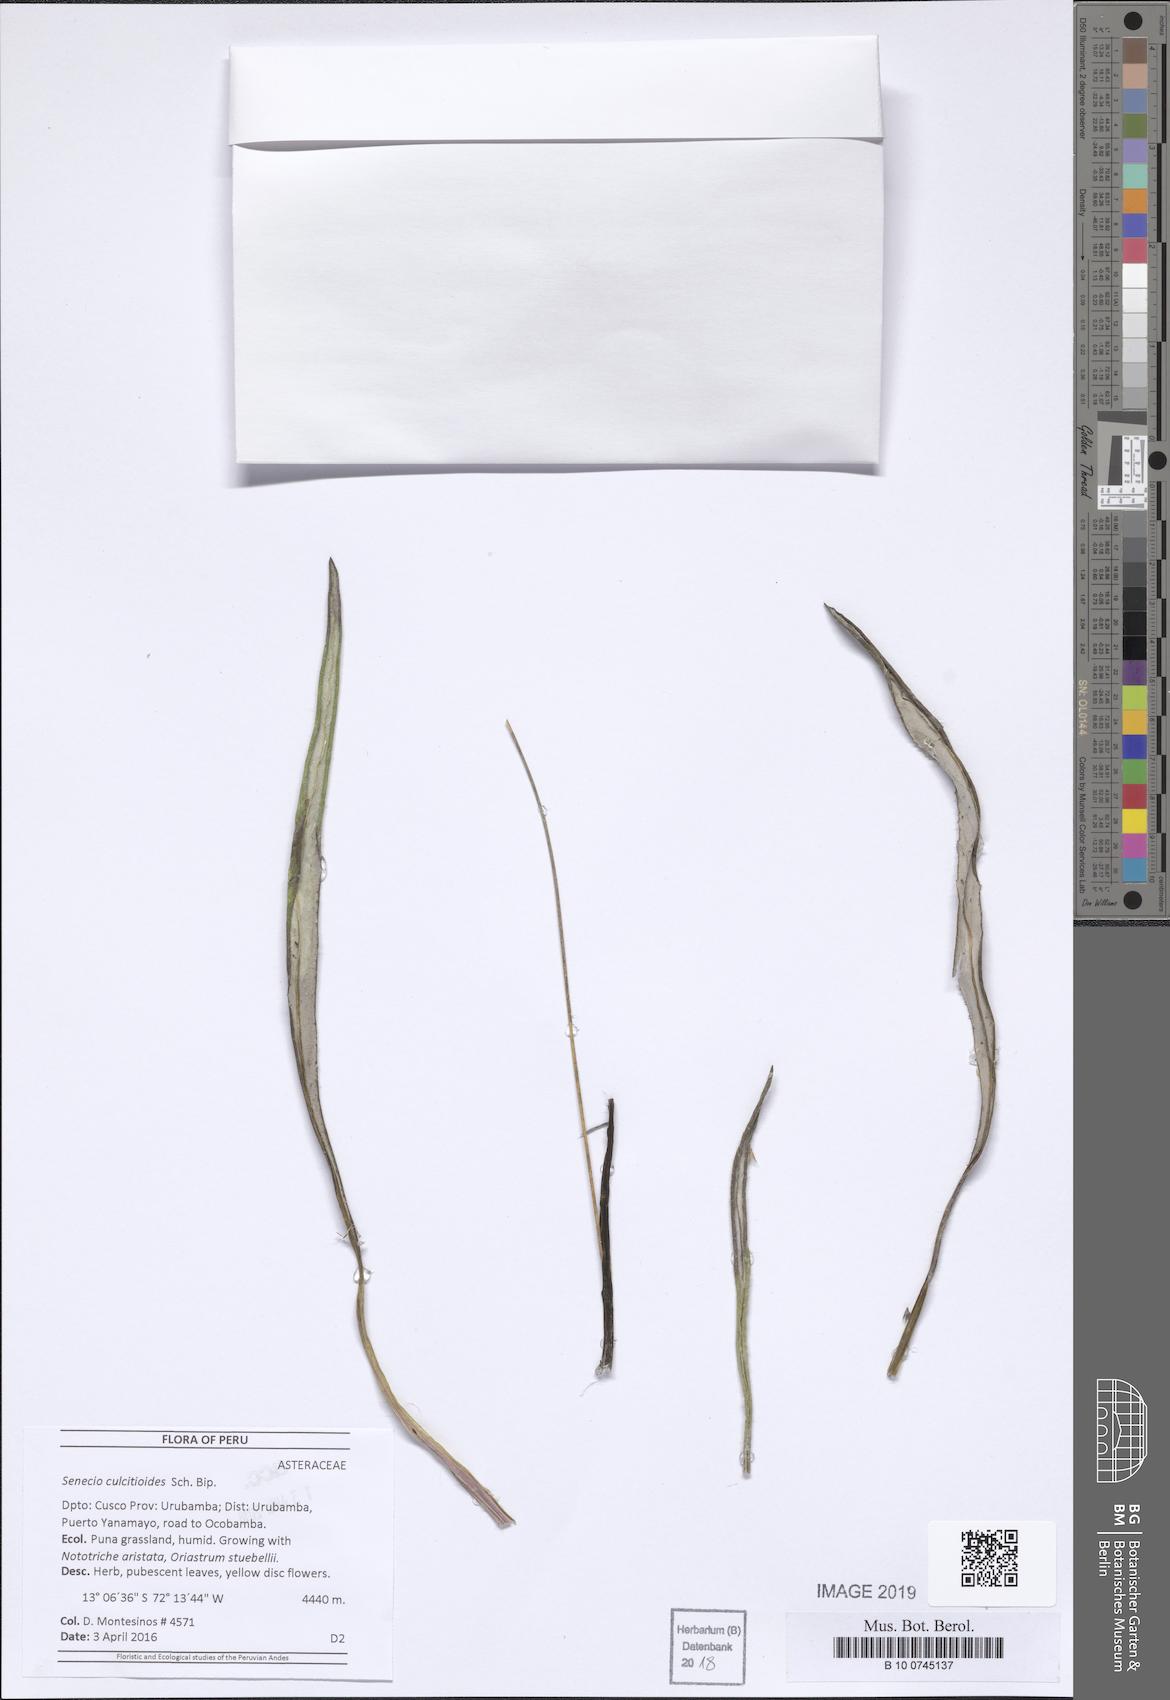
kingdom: Plantae
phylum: Tracheophyta
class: Magnoliopsida
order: Asterales
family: Asteraceae
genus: Senecio
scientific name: Senecio comosus
